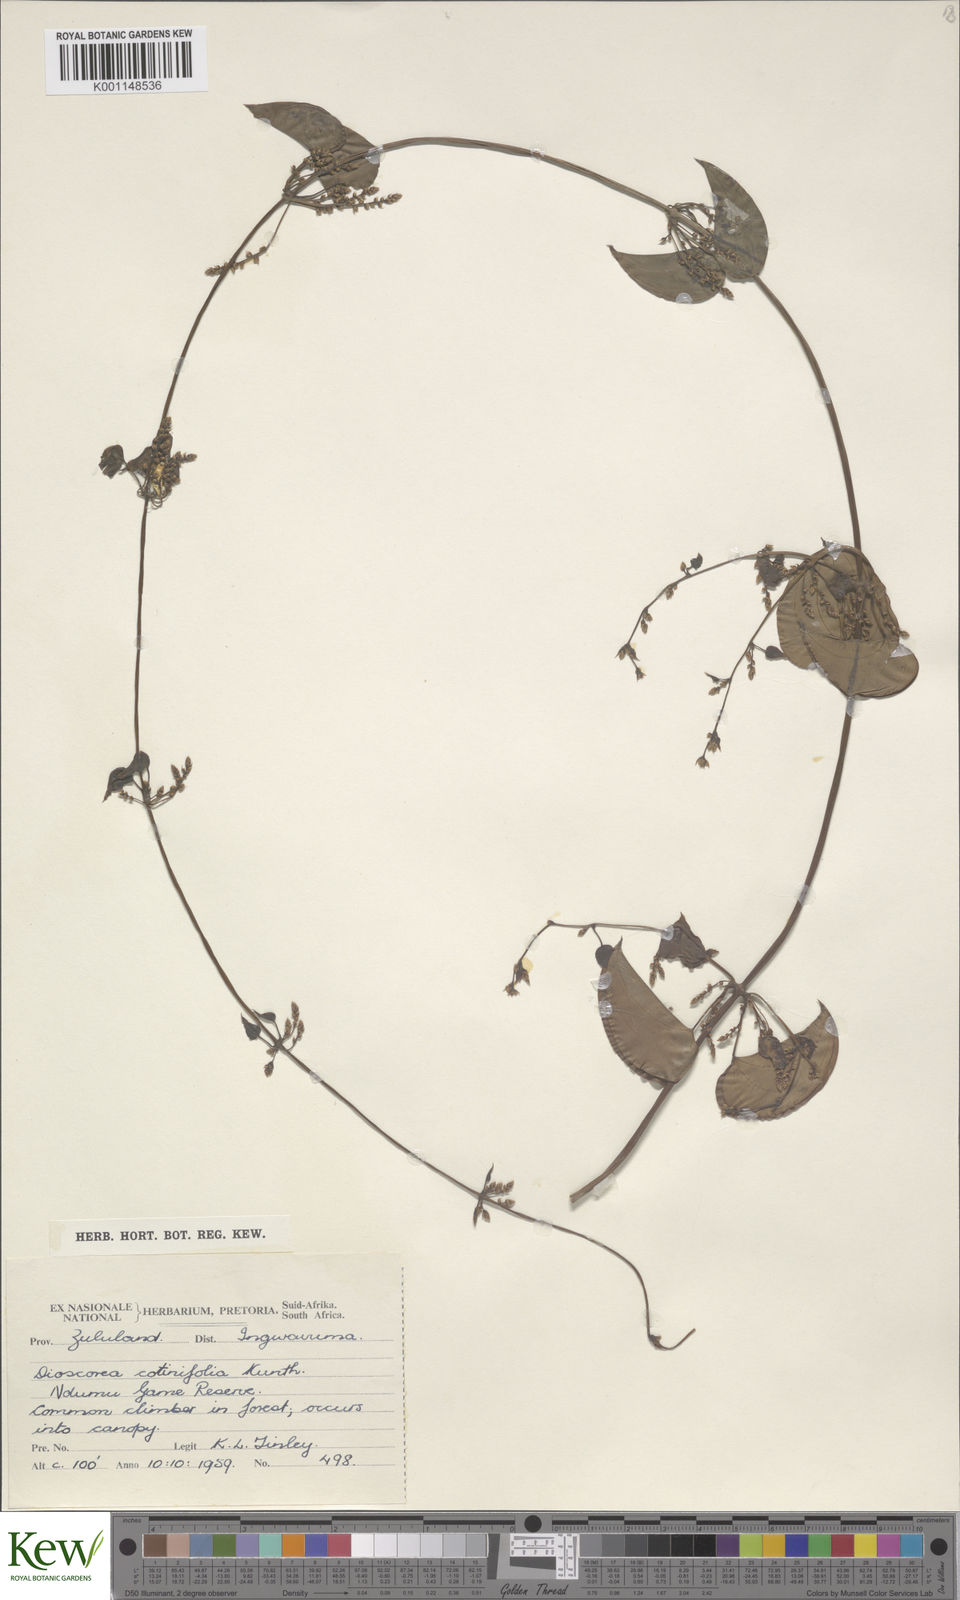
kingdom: Plantae
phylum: Tracheophyta
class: Liliopsida
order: Dioscoreales
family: Dioscoreaceae
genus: Dioscorea
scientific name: Dioscorea cotinifolia
